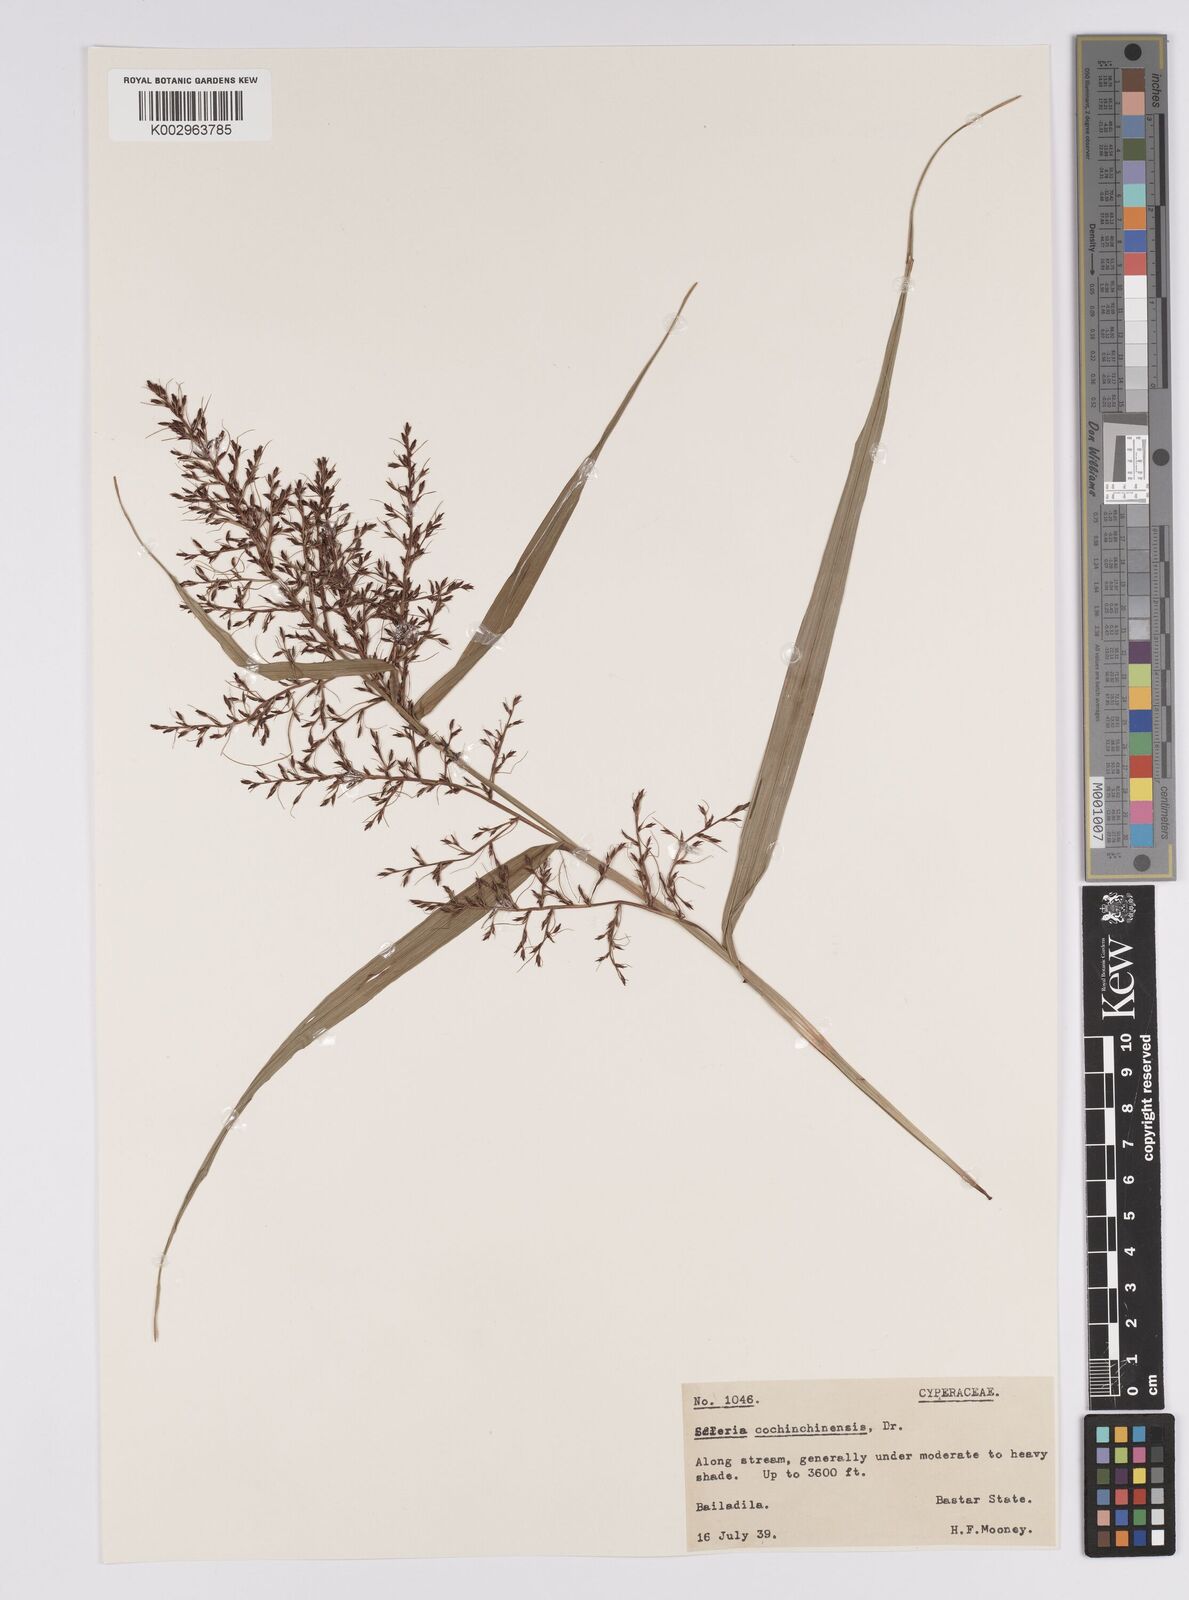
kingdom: Plantae
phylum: Tracheophyta
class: Liliopsida
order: Poales
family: Cyperaceae
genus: Scleria
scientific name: Scleria terrestris
